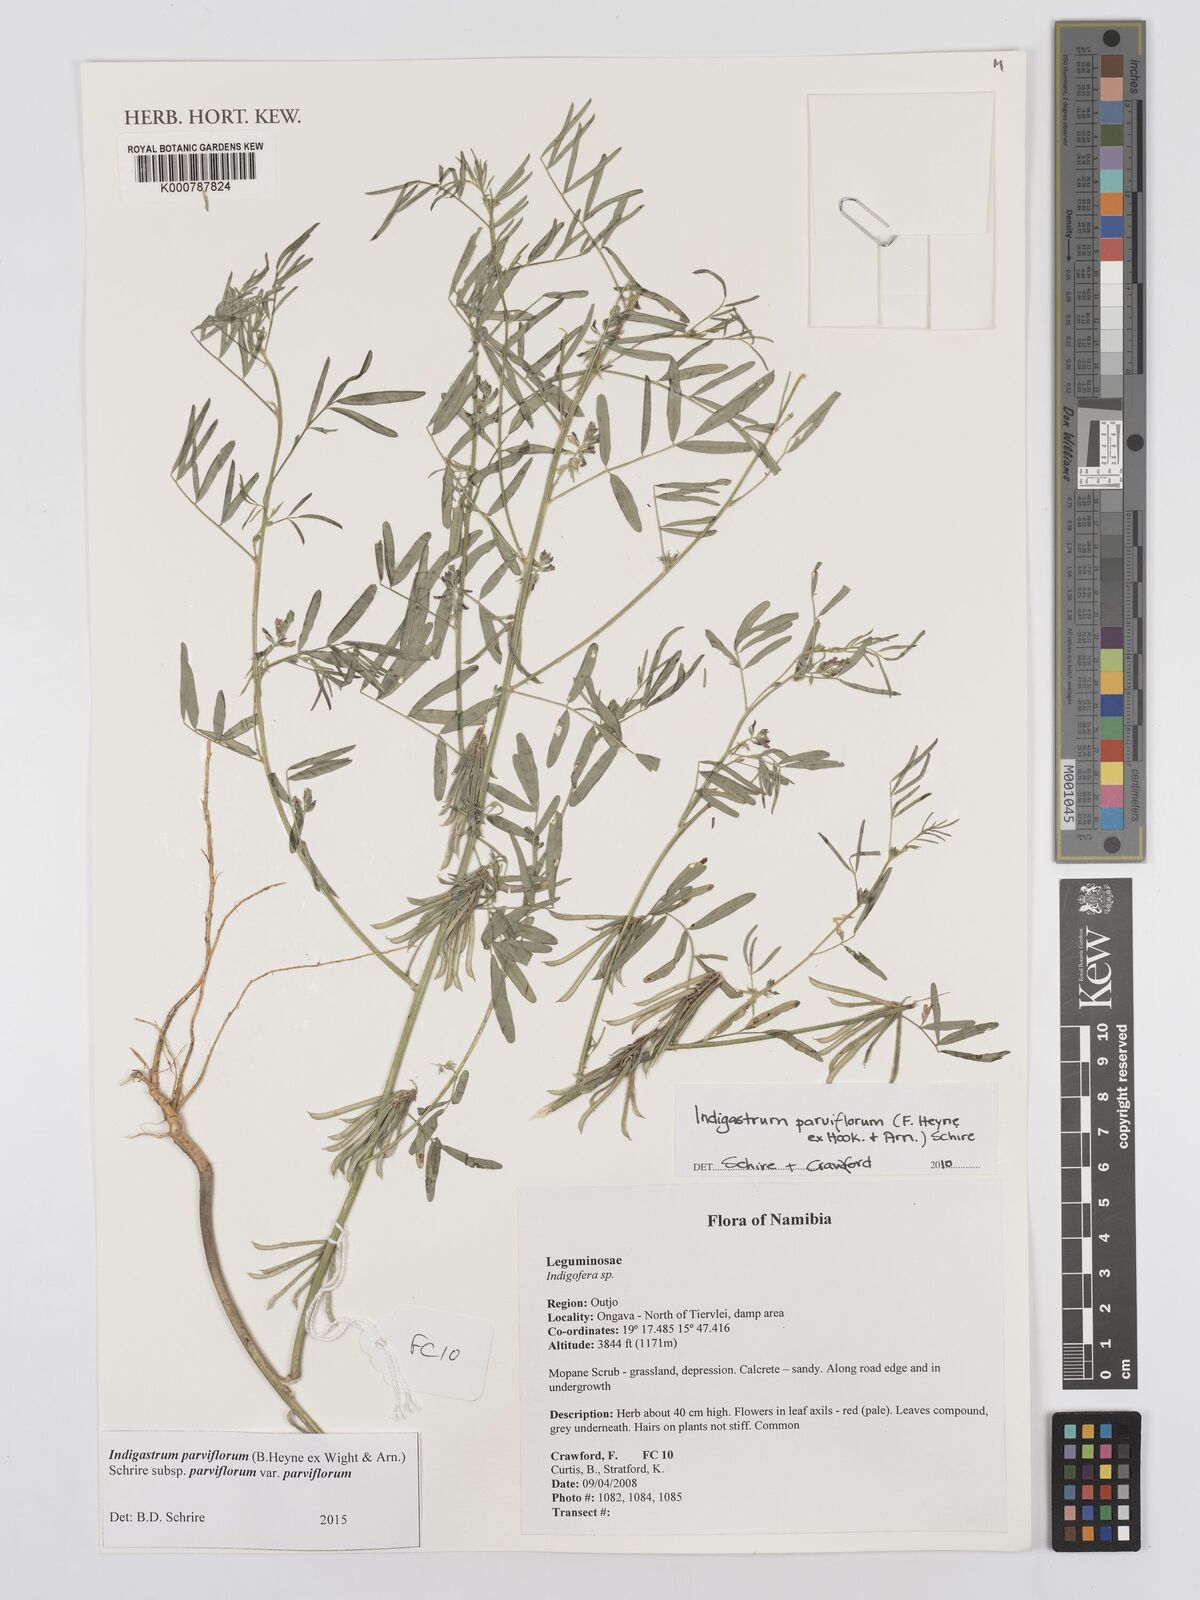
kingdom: Plantae
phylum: Tracheophyta
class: Magnoliopsida
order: Fabales
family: Fabaceae
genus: Indigastrum
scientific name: Indigastrum parviflorum
